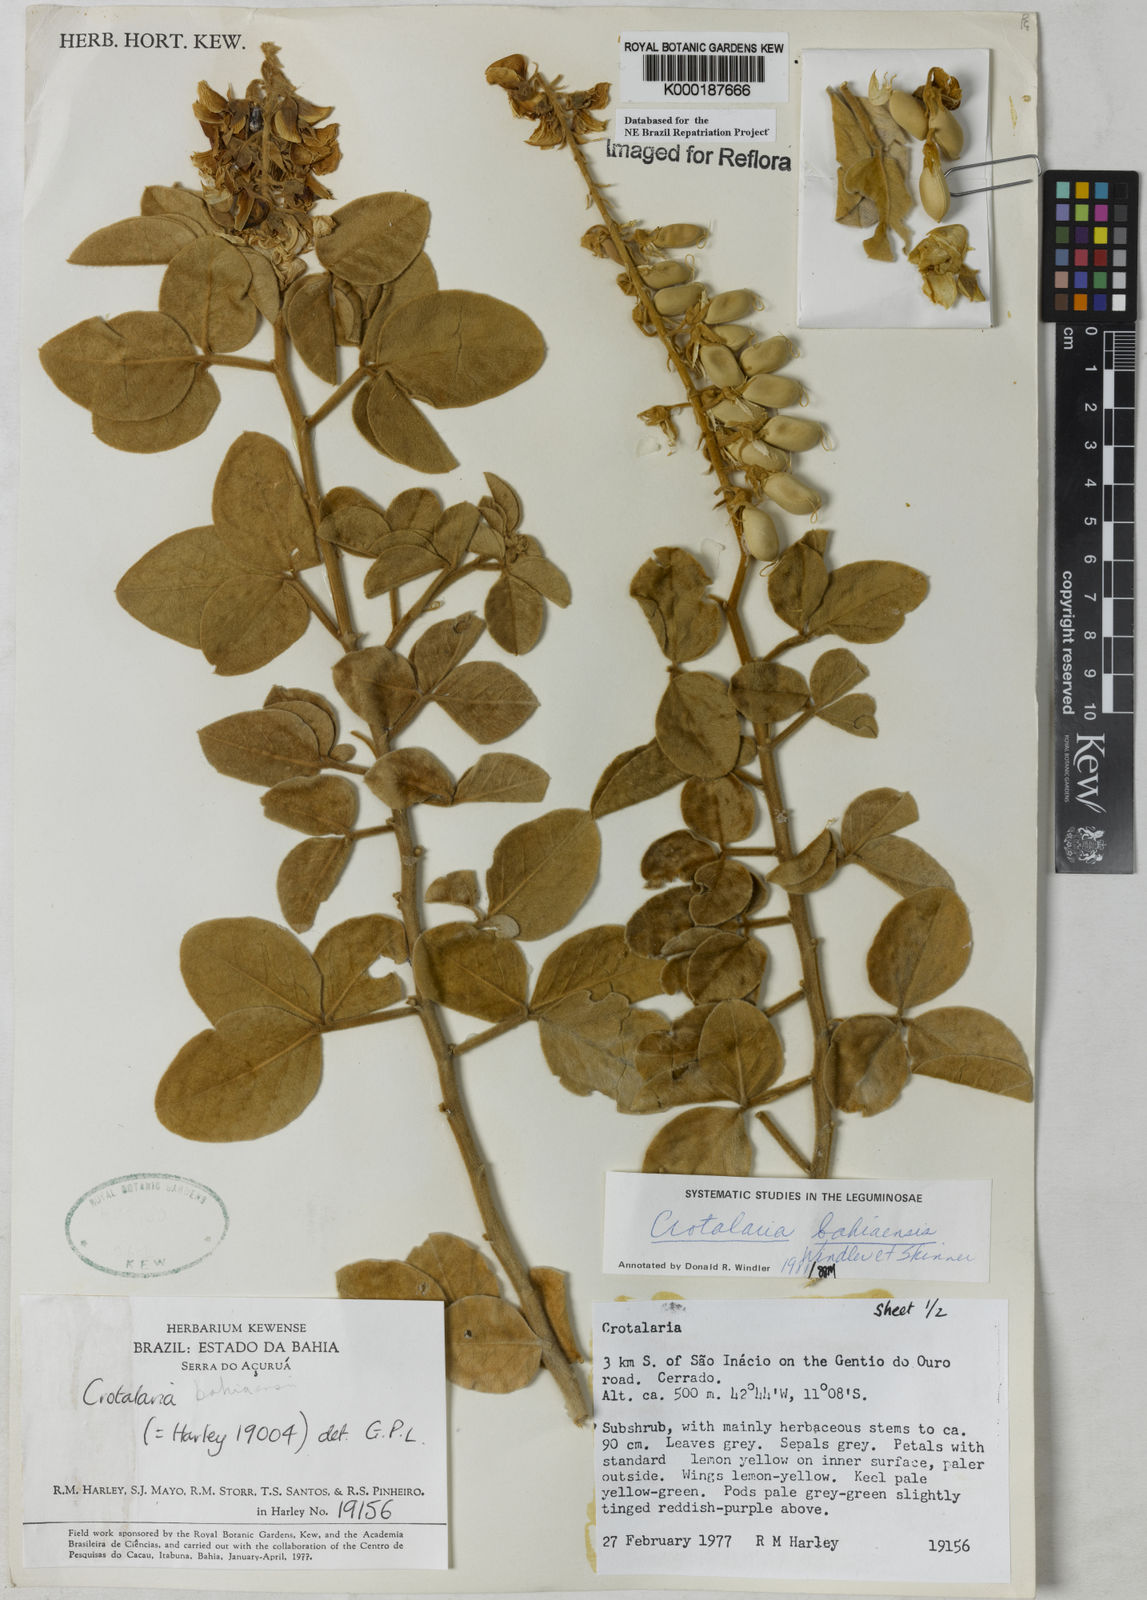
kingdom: Plantae
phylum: Tracheophyta
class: Magnoliopsida
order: Fabales
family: Fabaceae
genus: Crotalaria
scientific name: Crotalaria
